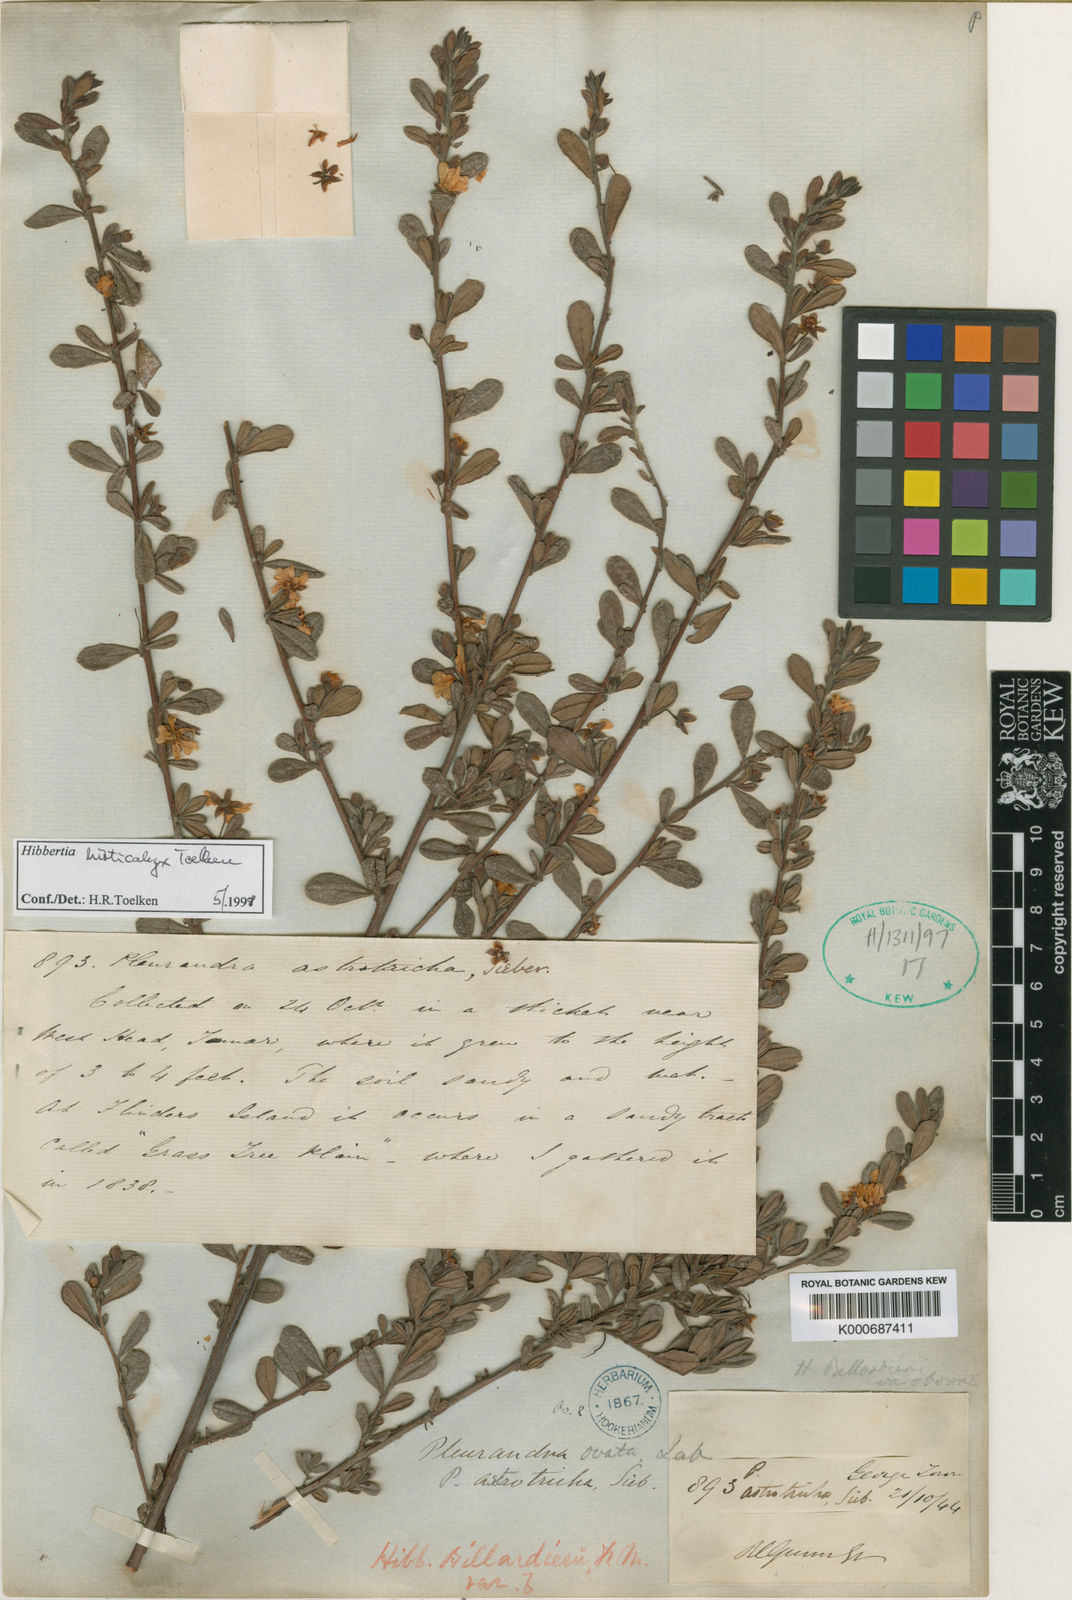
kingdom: Plantae
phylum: Tracheophyta
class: Magnoliopsida
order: Dilleniales
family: Dilleniaceae
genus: Hibbertia
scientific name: Hibbertia aspera
